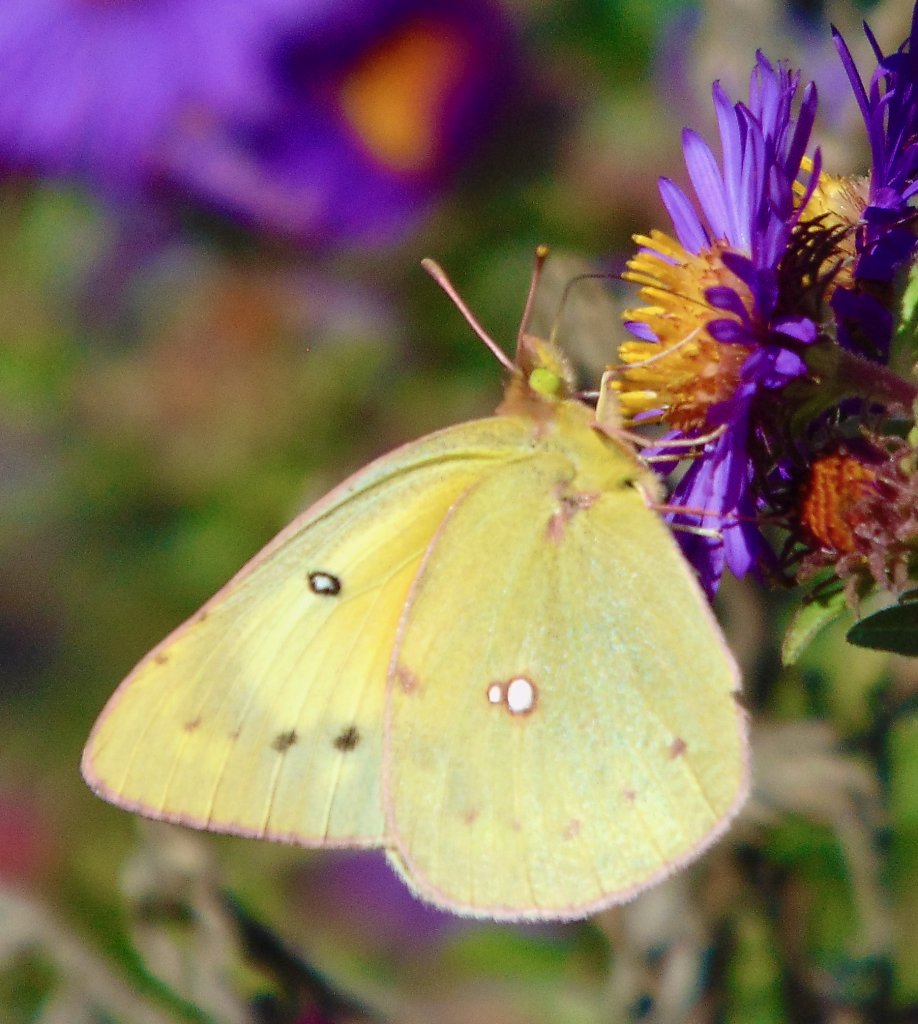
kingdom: Animalia
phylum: Arthropoda
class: Insecta
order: Lepidoptera
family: Pieridae
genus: Colias
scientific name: Colias eurytheme
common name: Orange Sulphur
